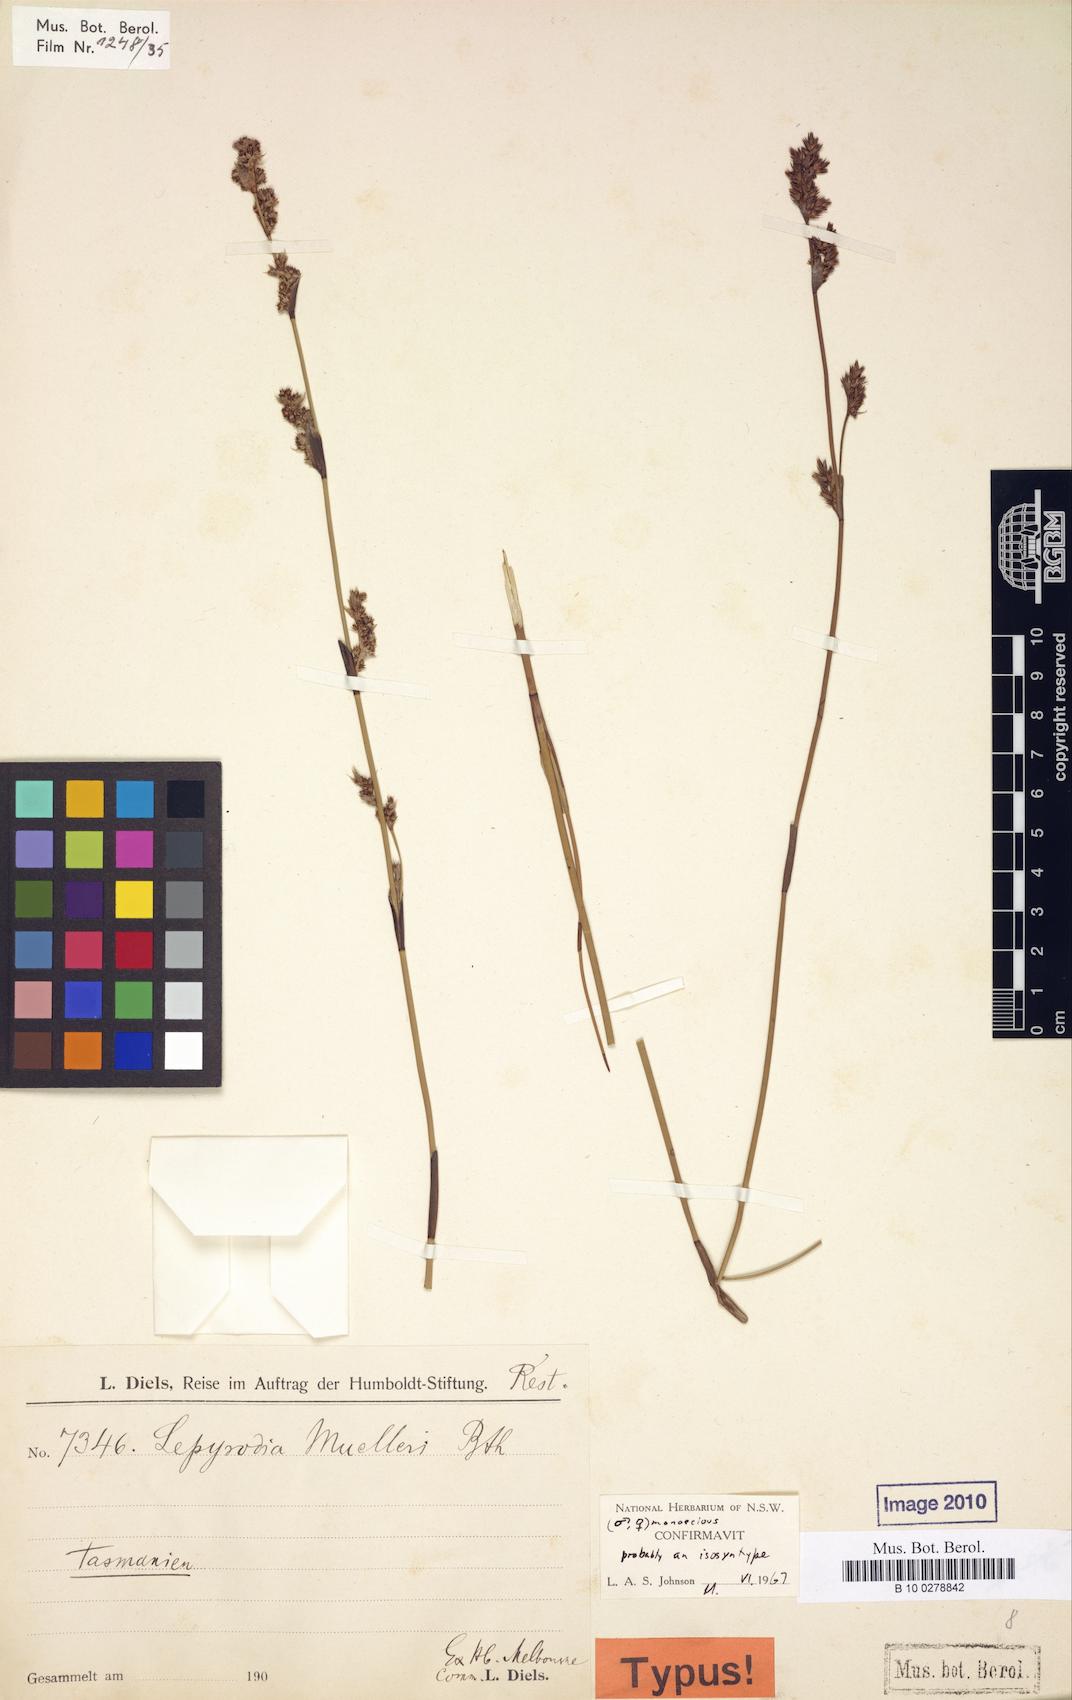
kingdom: Plantae
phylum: Tracheophyta
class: Liliopsida
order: Poales
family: Restionaceae
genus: Lepyrodia
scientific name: Lepyrodia muelleri
